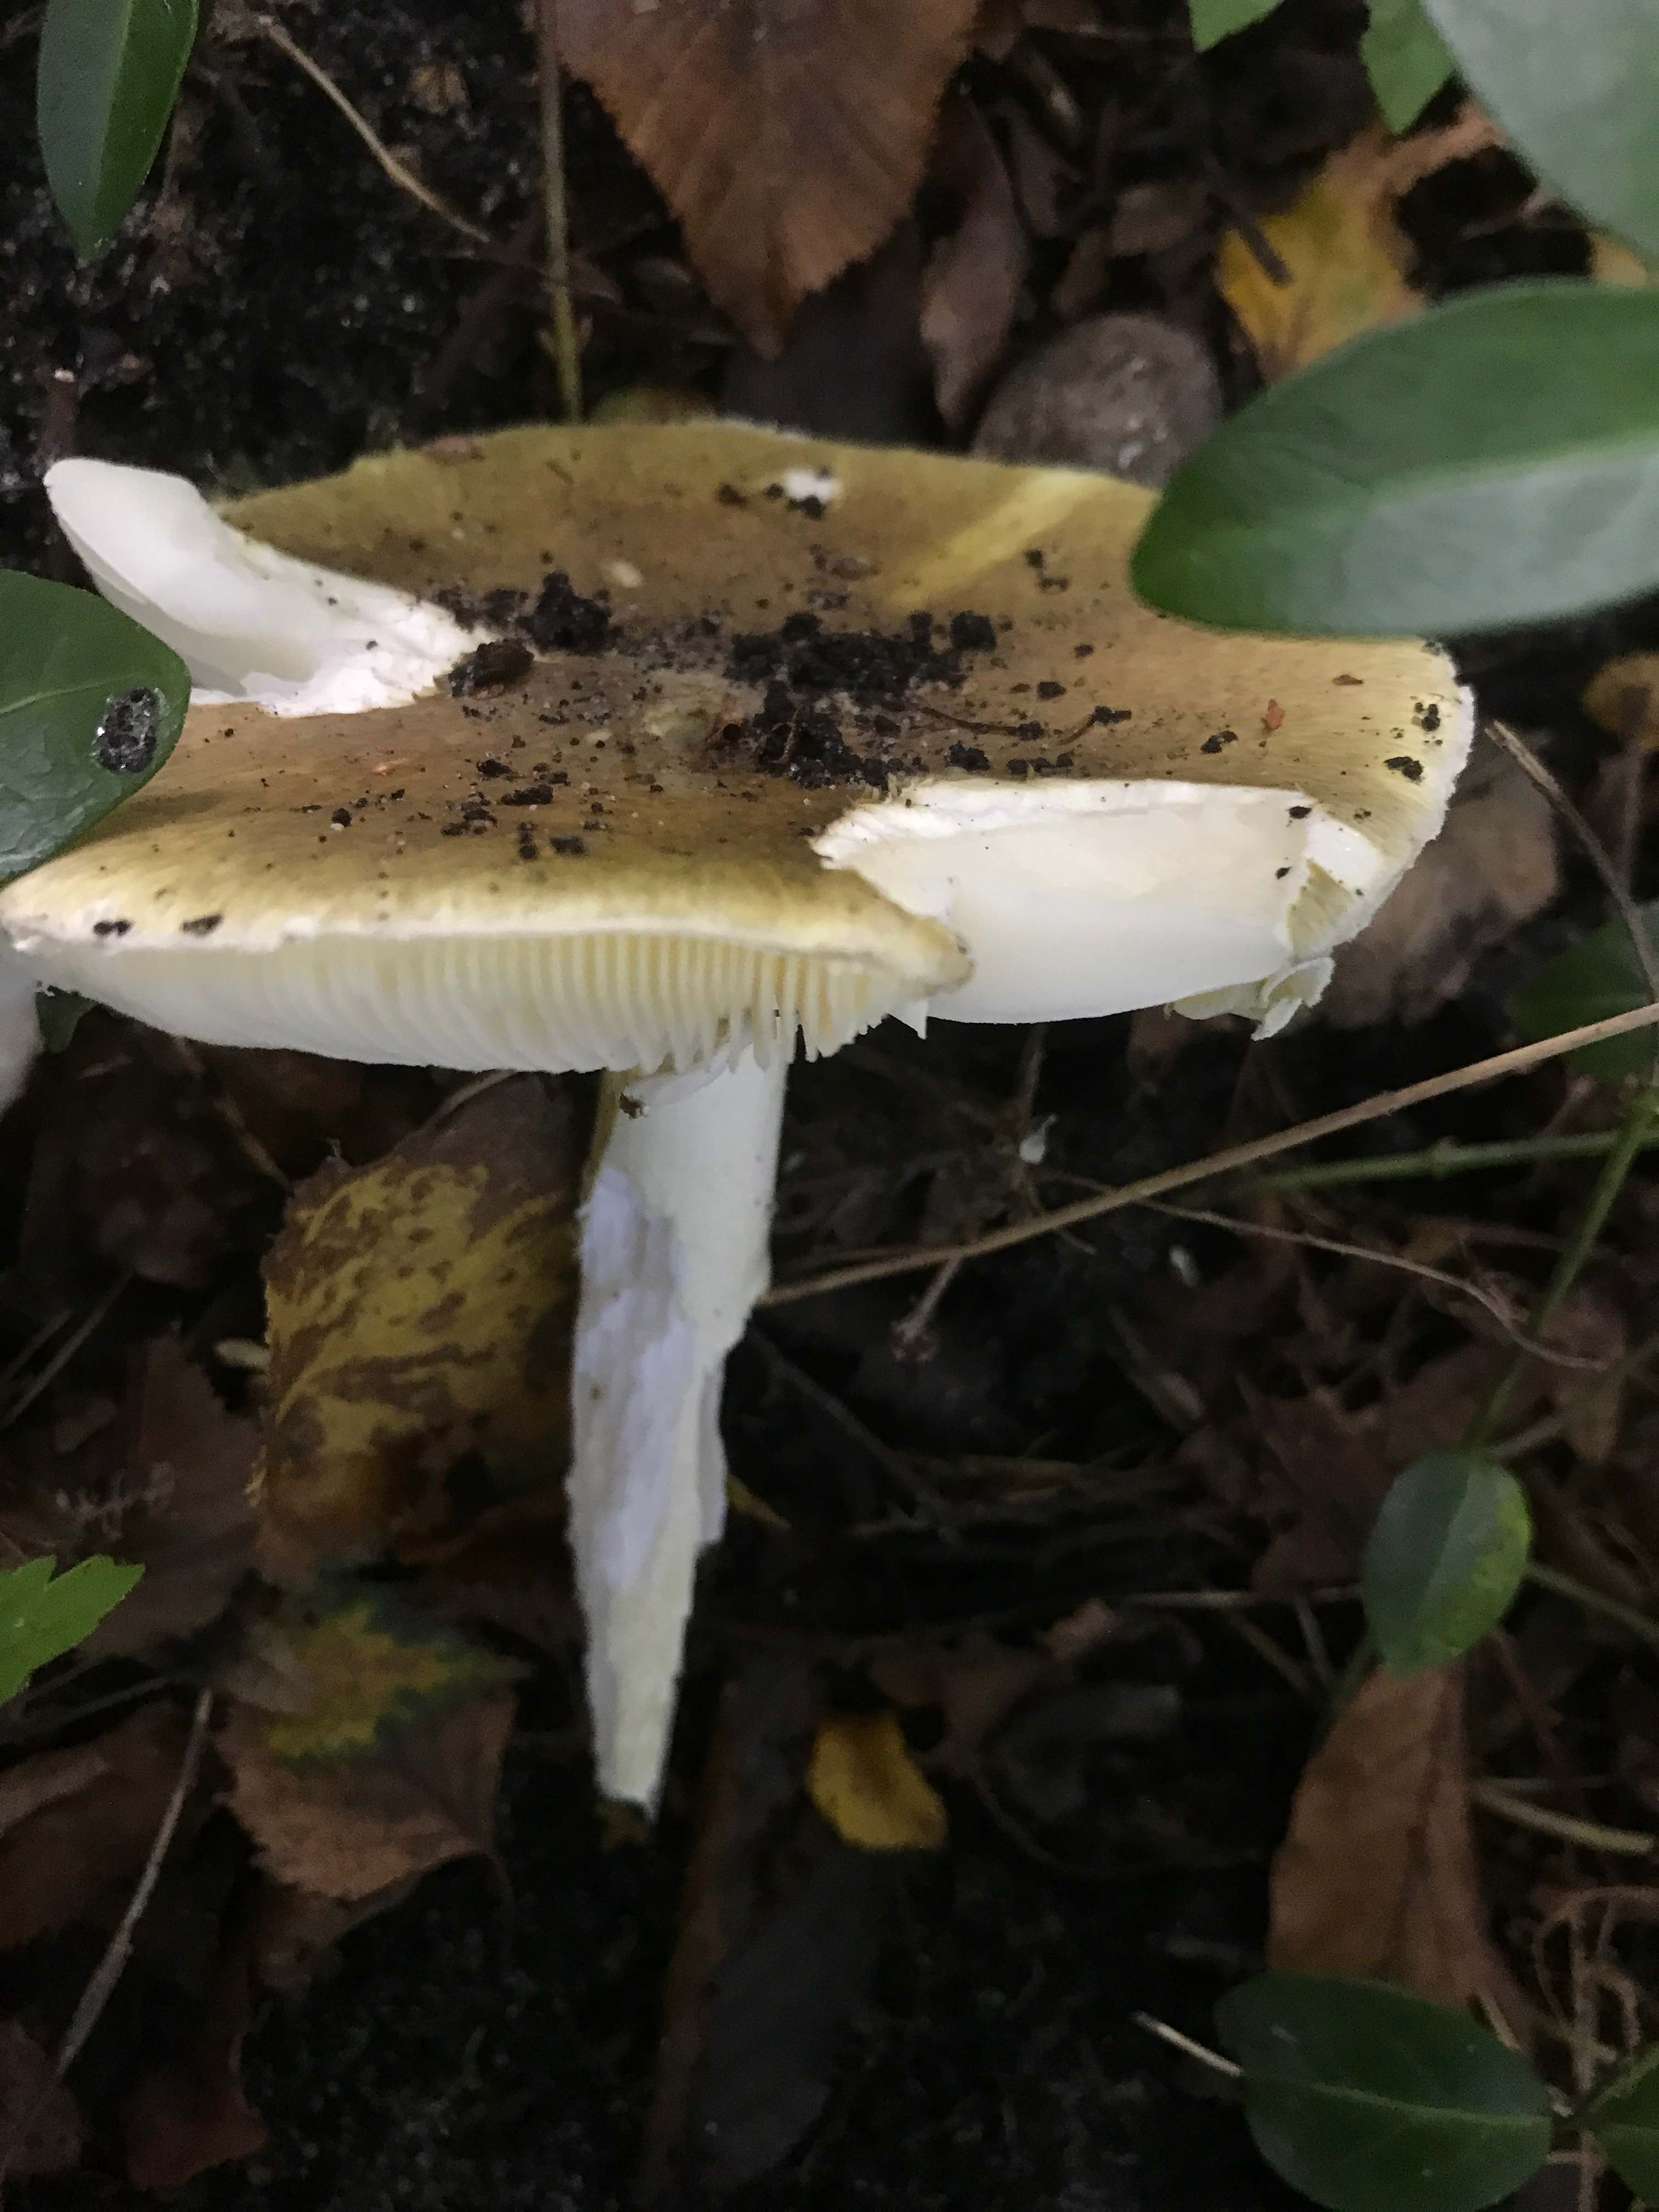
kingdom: Fungi
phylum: Basidiomycota
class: Agaricomycetes
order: Agaricales
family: Amanitaceae
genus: Amanita
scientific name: Amanita phalloides
